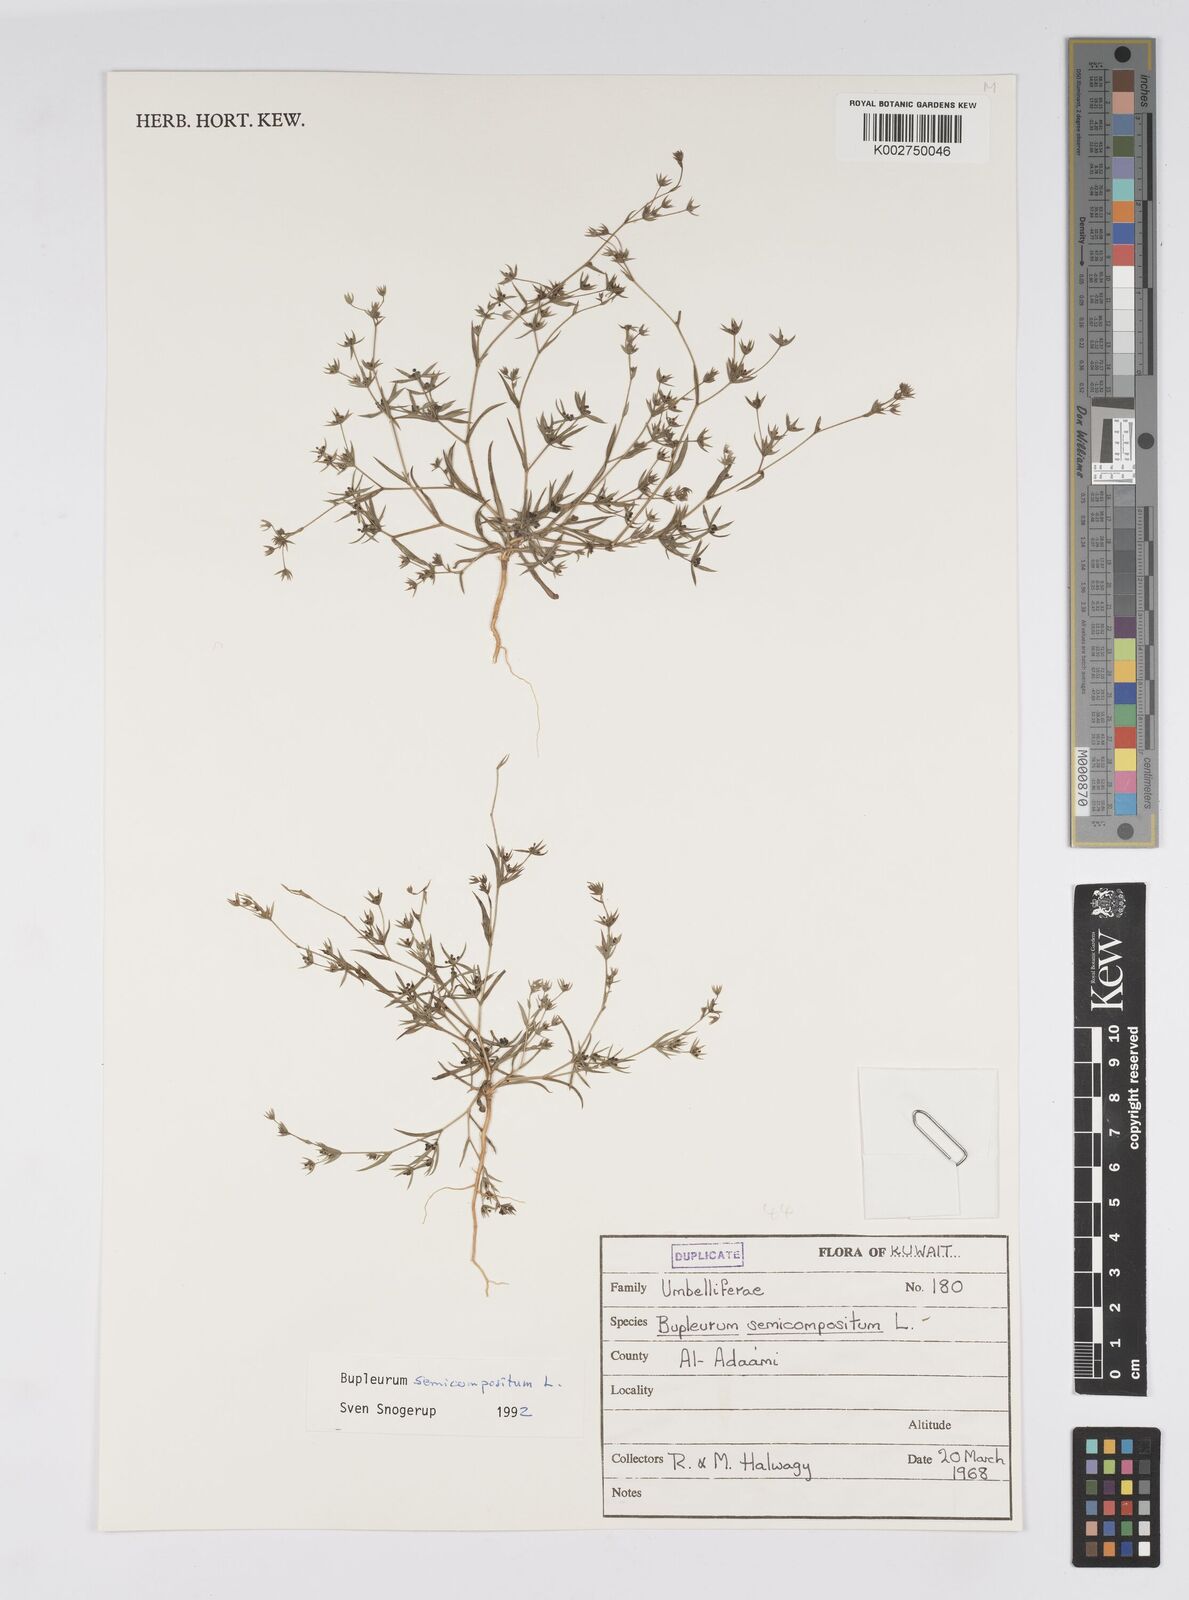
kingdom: Plantae
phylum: Tracheophyta
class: Magnoliopsida
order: Apiales
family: Apiaceae
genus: Bupleurum
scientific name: Bupleurum semicompositum
